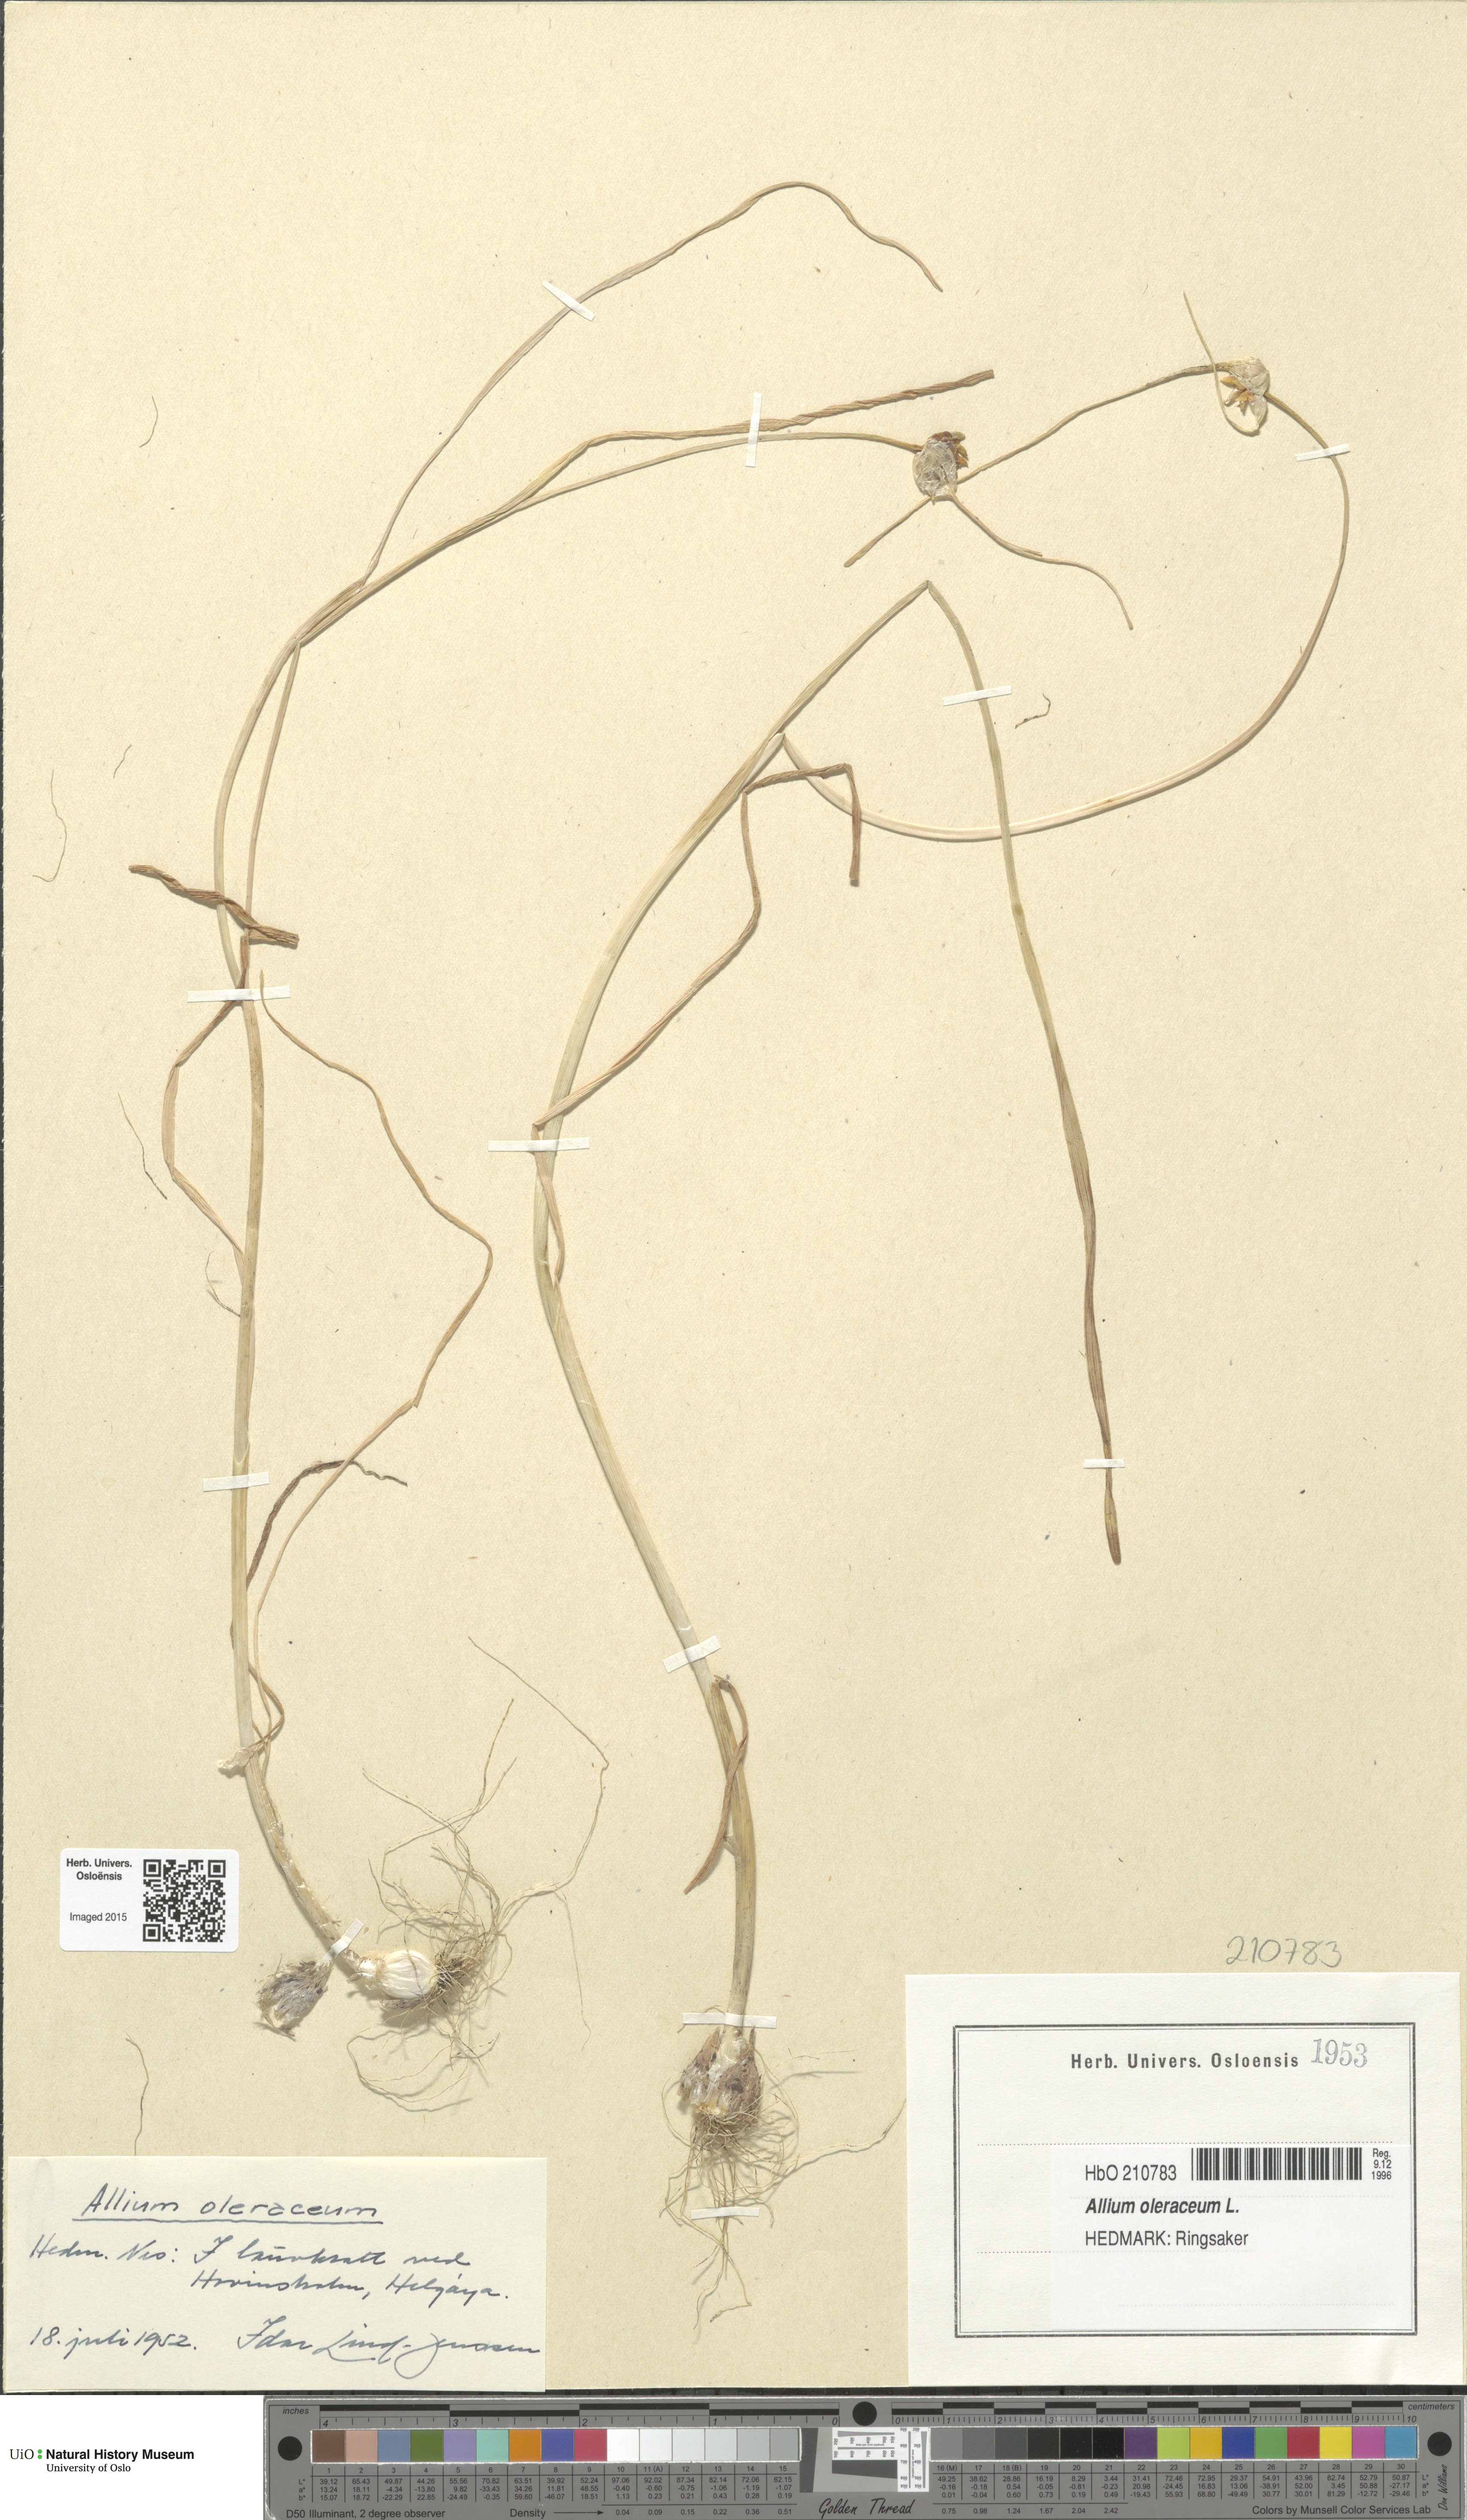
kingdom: Plantae
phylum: Tracheophyta
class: Liliopsida
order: Asparagales
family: Amaryllidaceae
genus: Allium
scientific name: Allium oleraceum
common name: Field garlic
